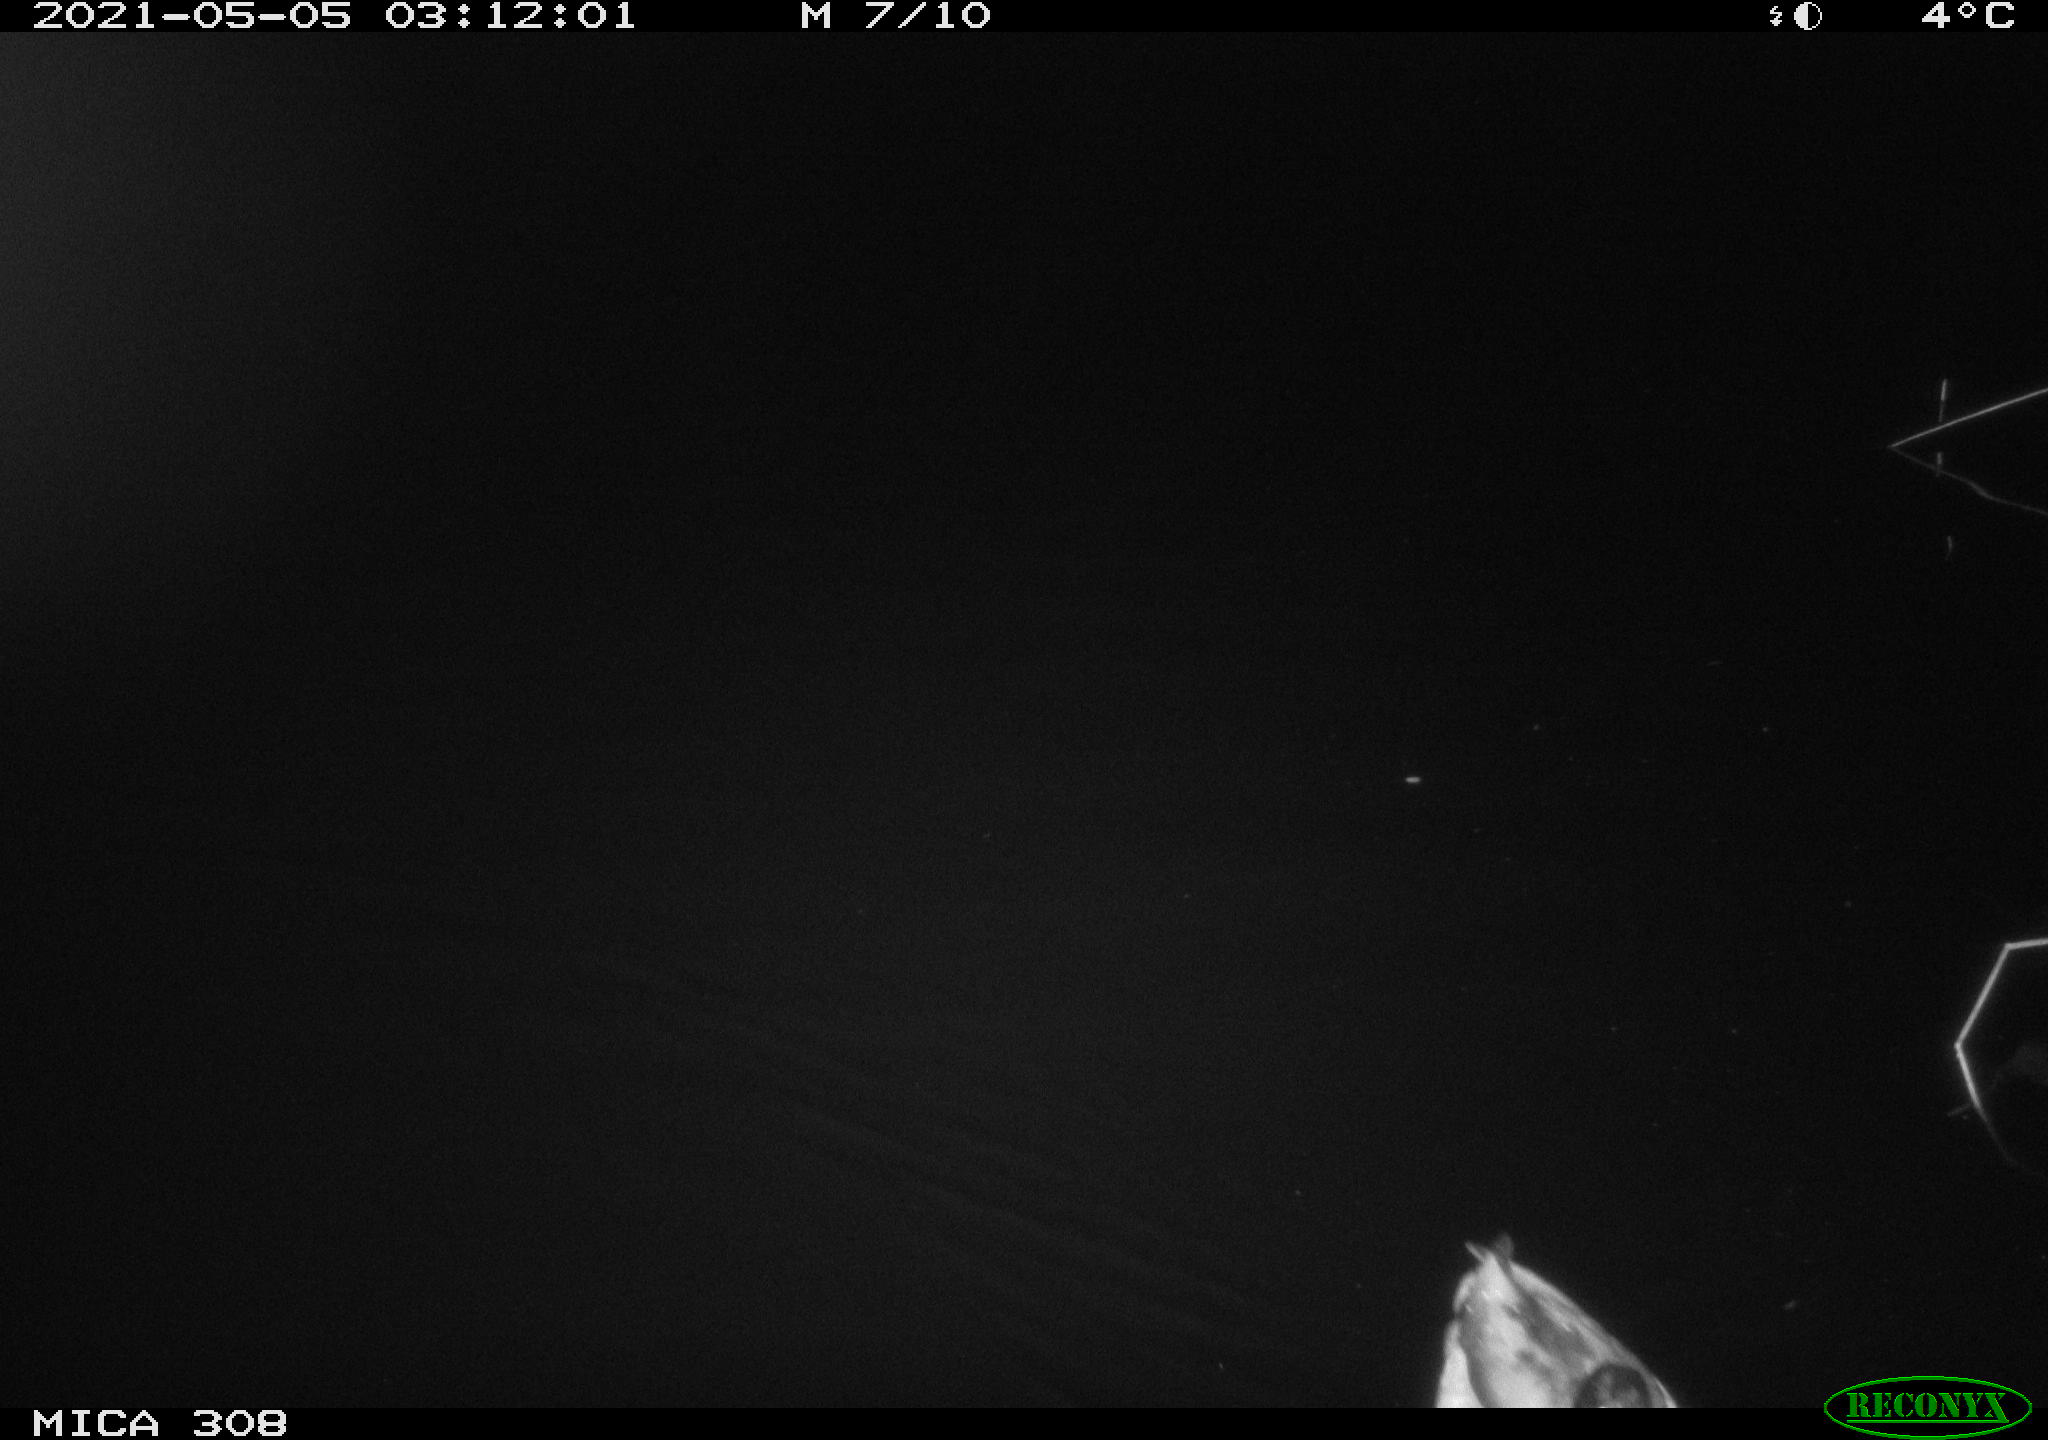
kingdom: Animalia
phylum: Chordata
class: Aves
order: Anseriformes
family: Anatidae
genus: Anas
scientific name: Anas platyrhynchos
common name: Mallard
